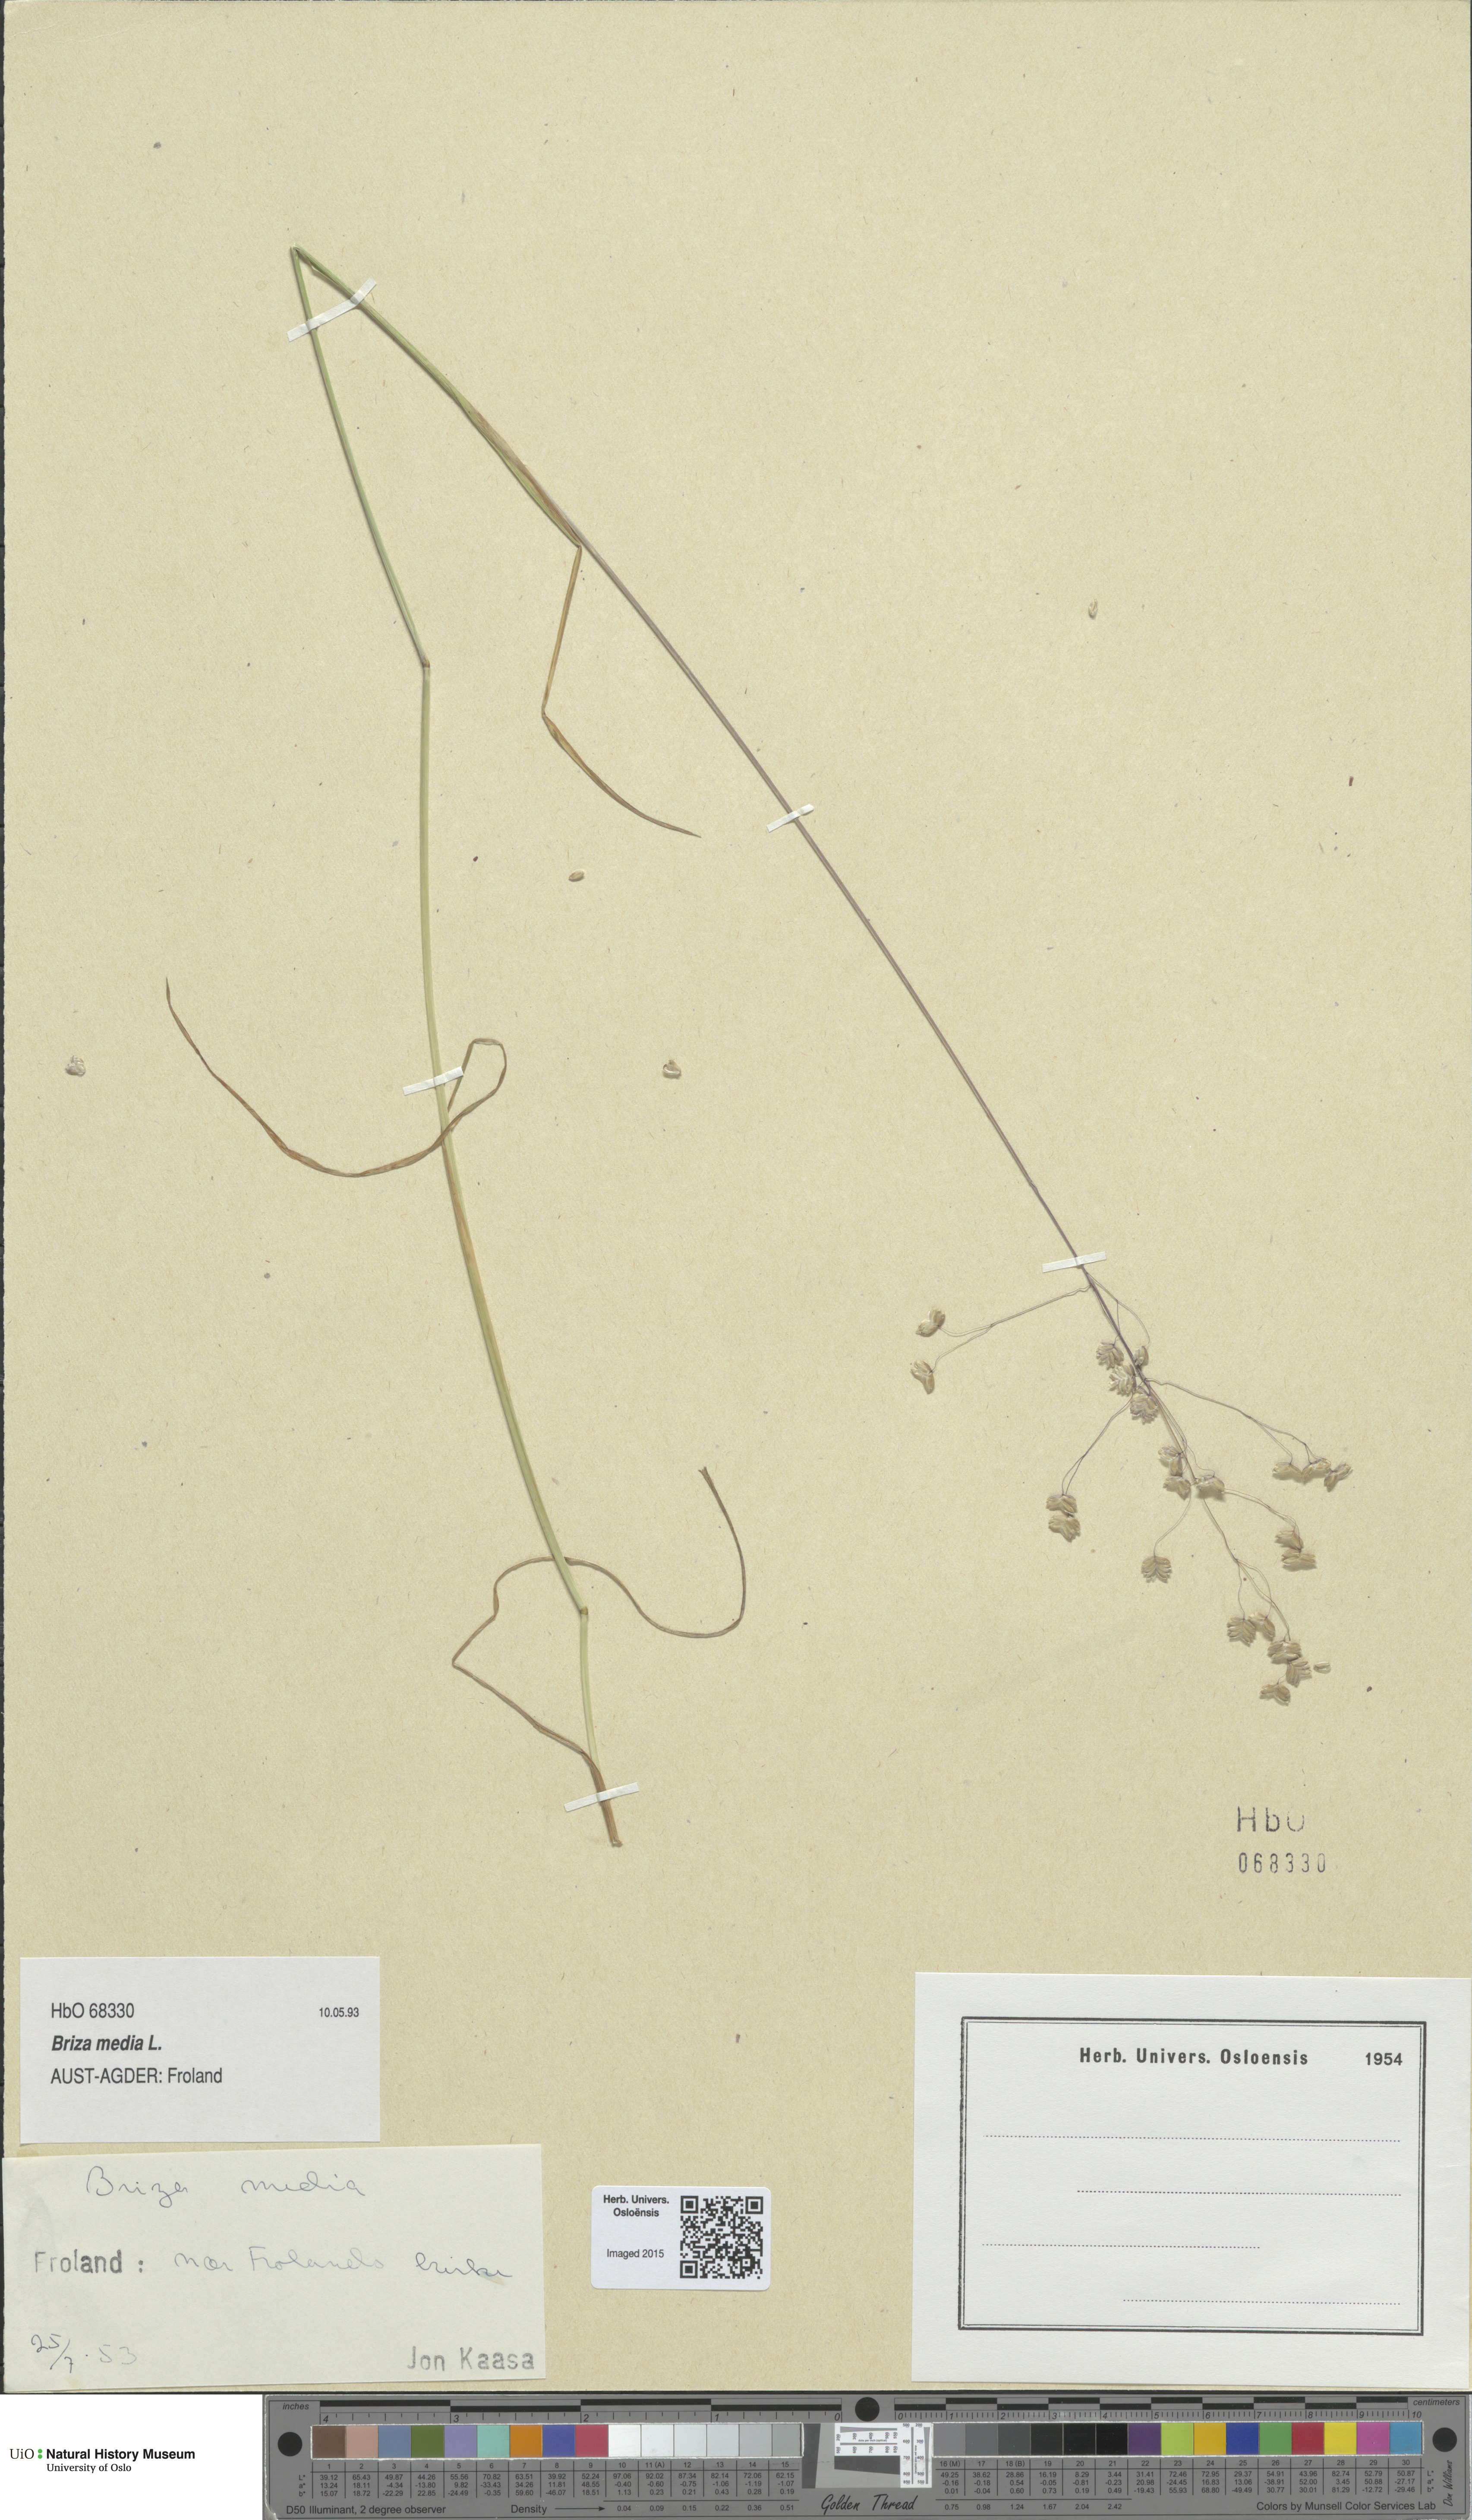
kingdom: Plantae
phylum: Tracheophyta
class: Liliopsida
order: Poales
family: Poaceae
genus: Briza
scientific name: Briza media
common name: Quaking grass
